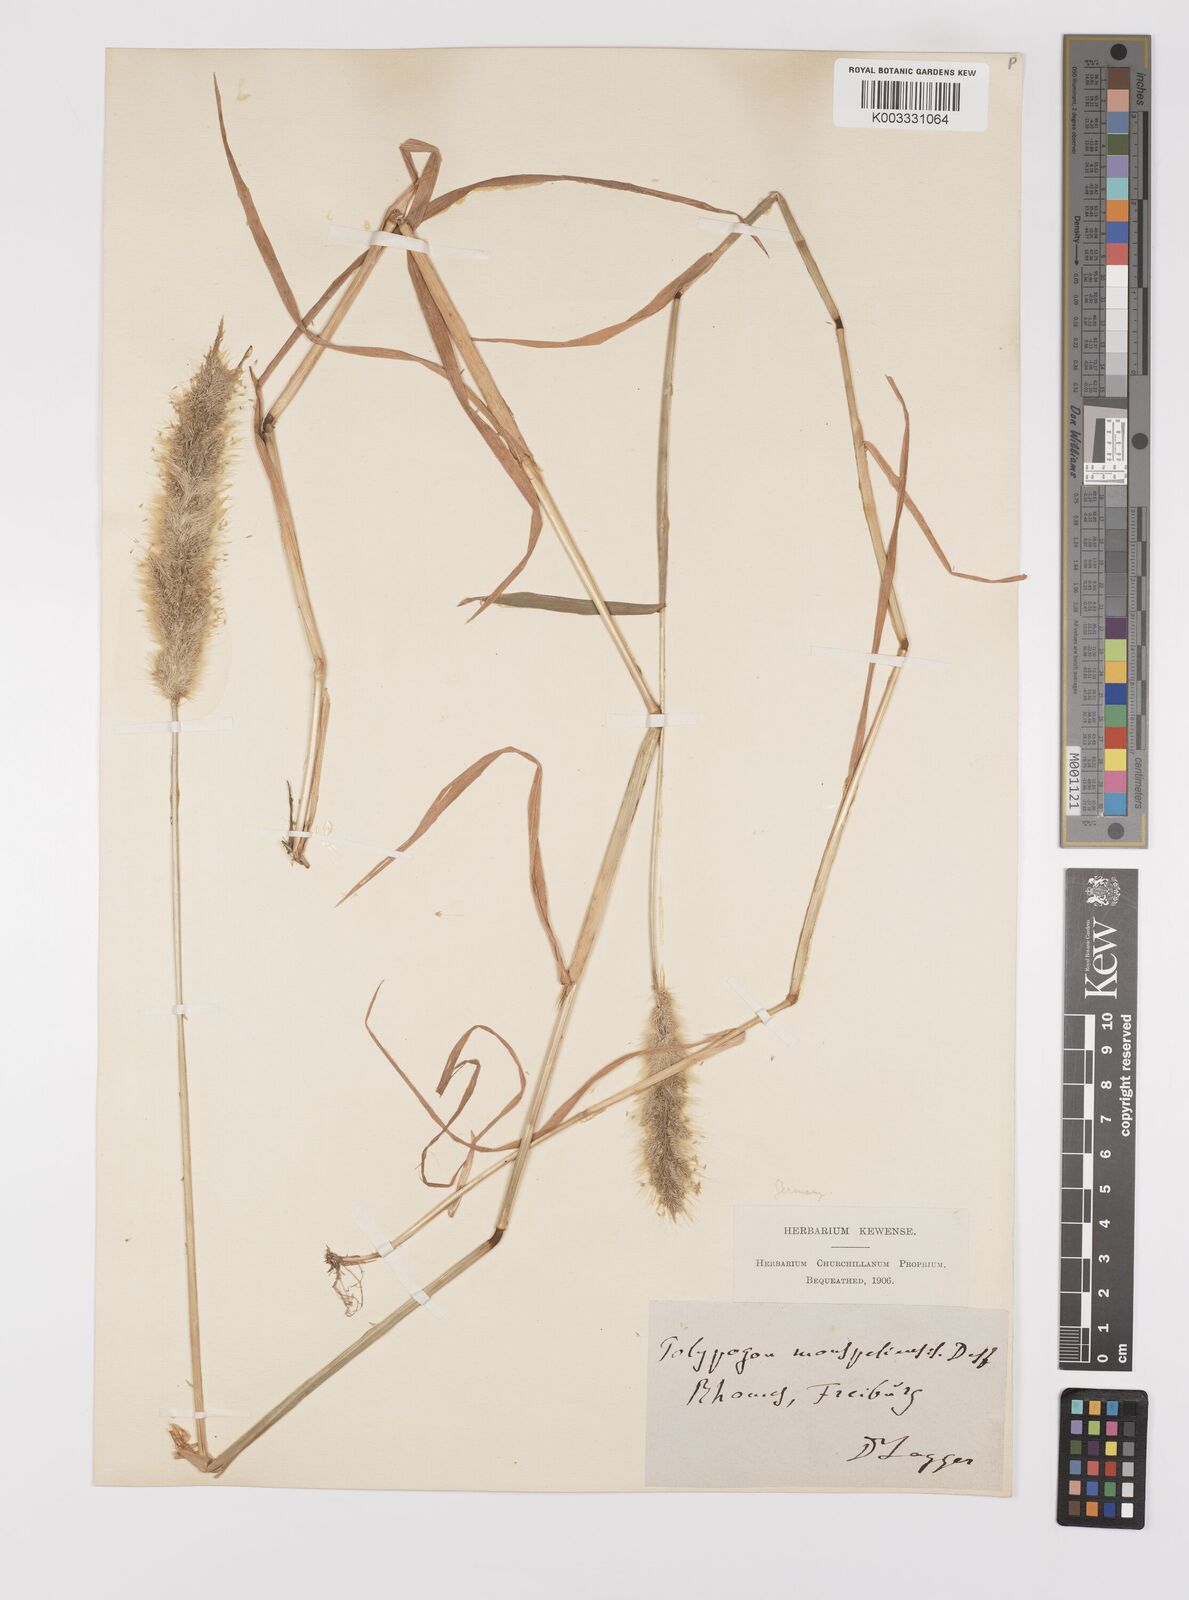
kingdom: Plantae
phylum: Tracheophyta
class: Liliopsida
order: Poales
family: Poaceae
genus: Polypogon
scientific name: Polypogon monspeliensis
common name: Annual rabbitsfoot grass
